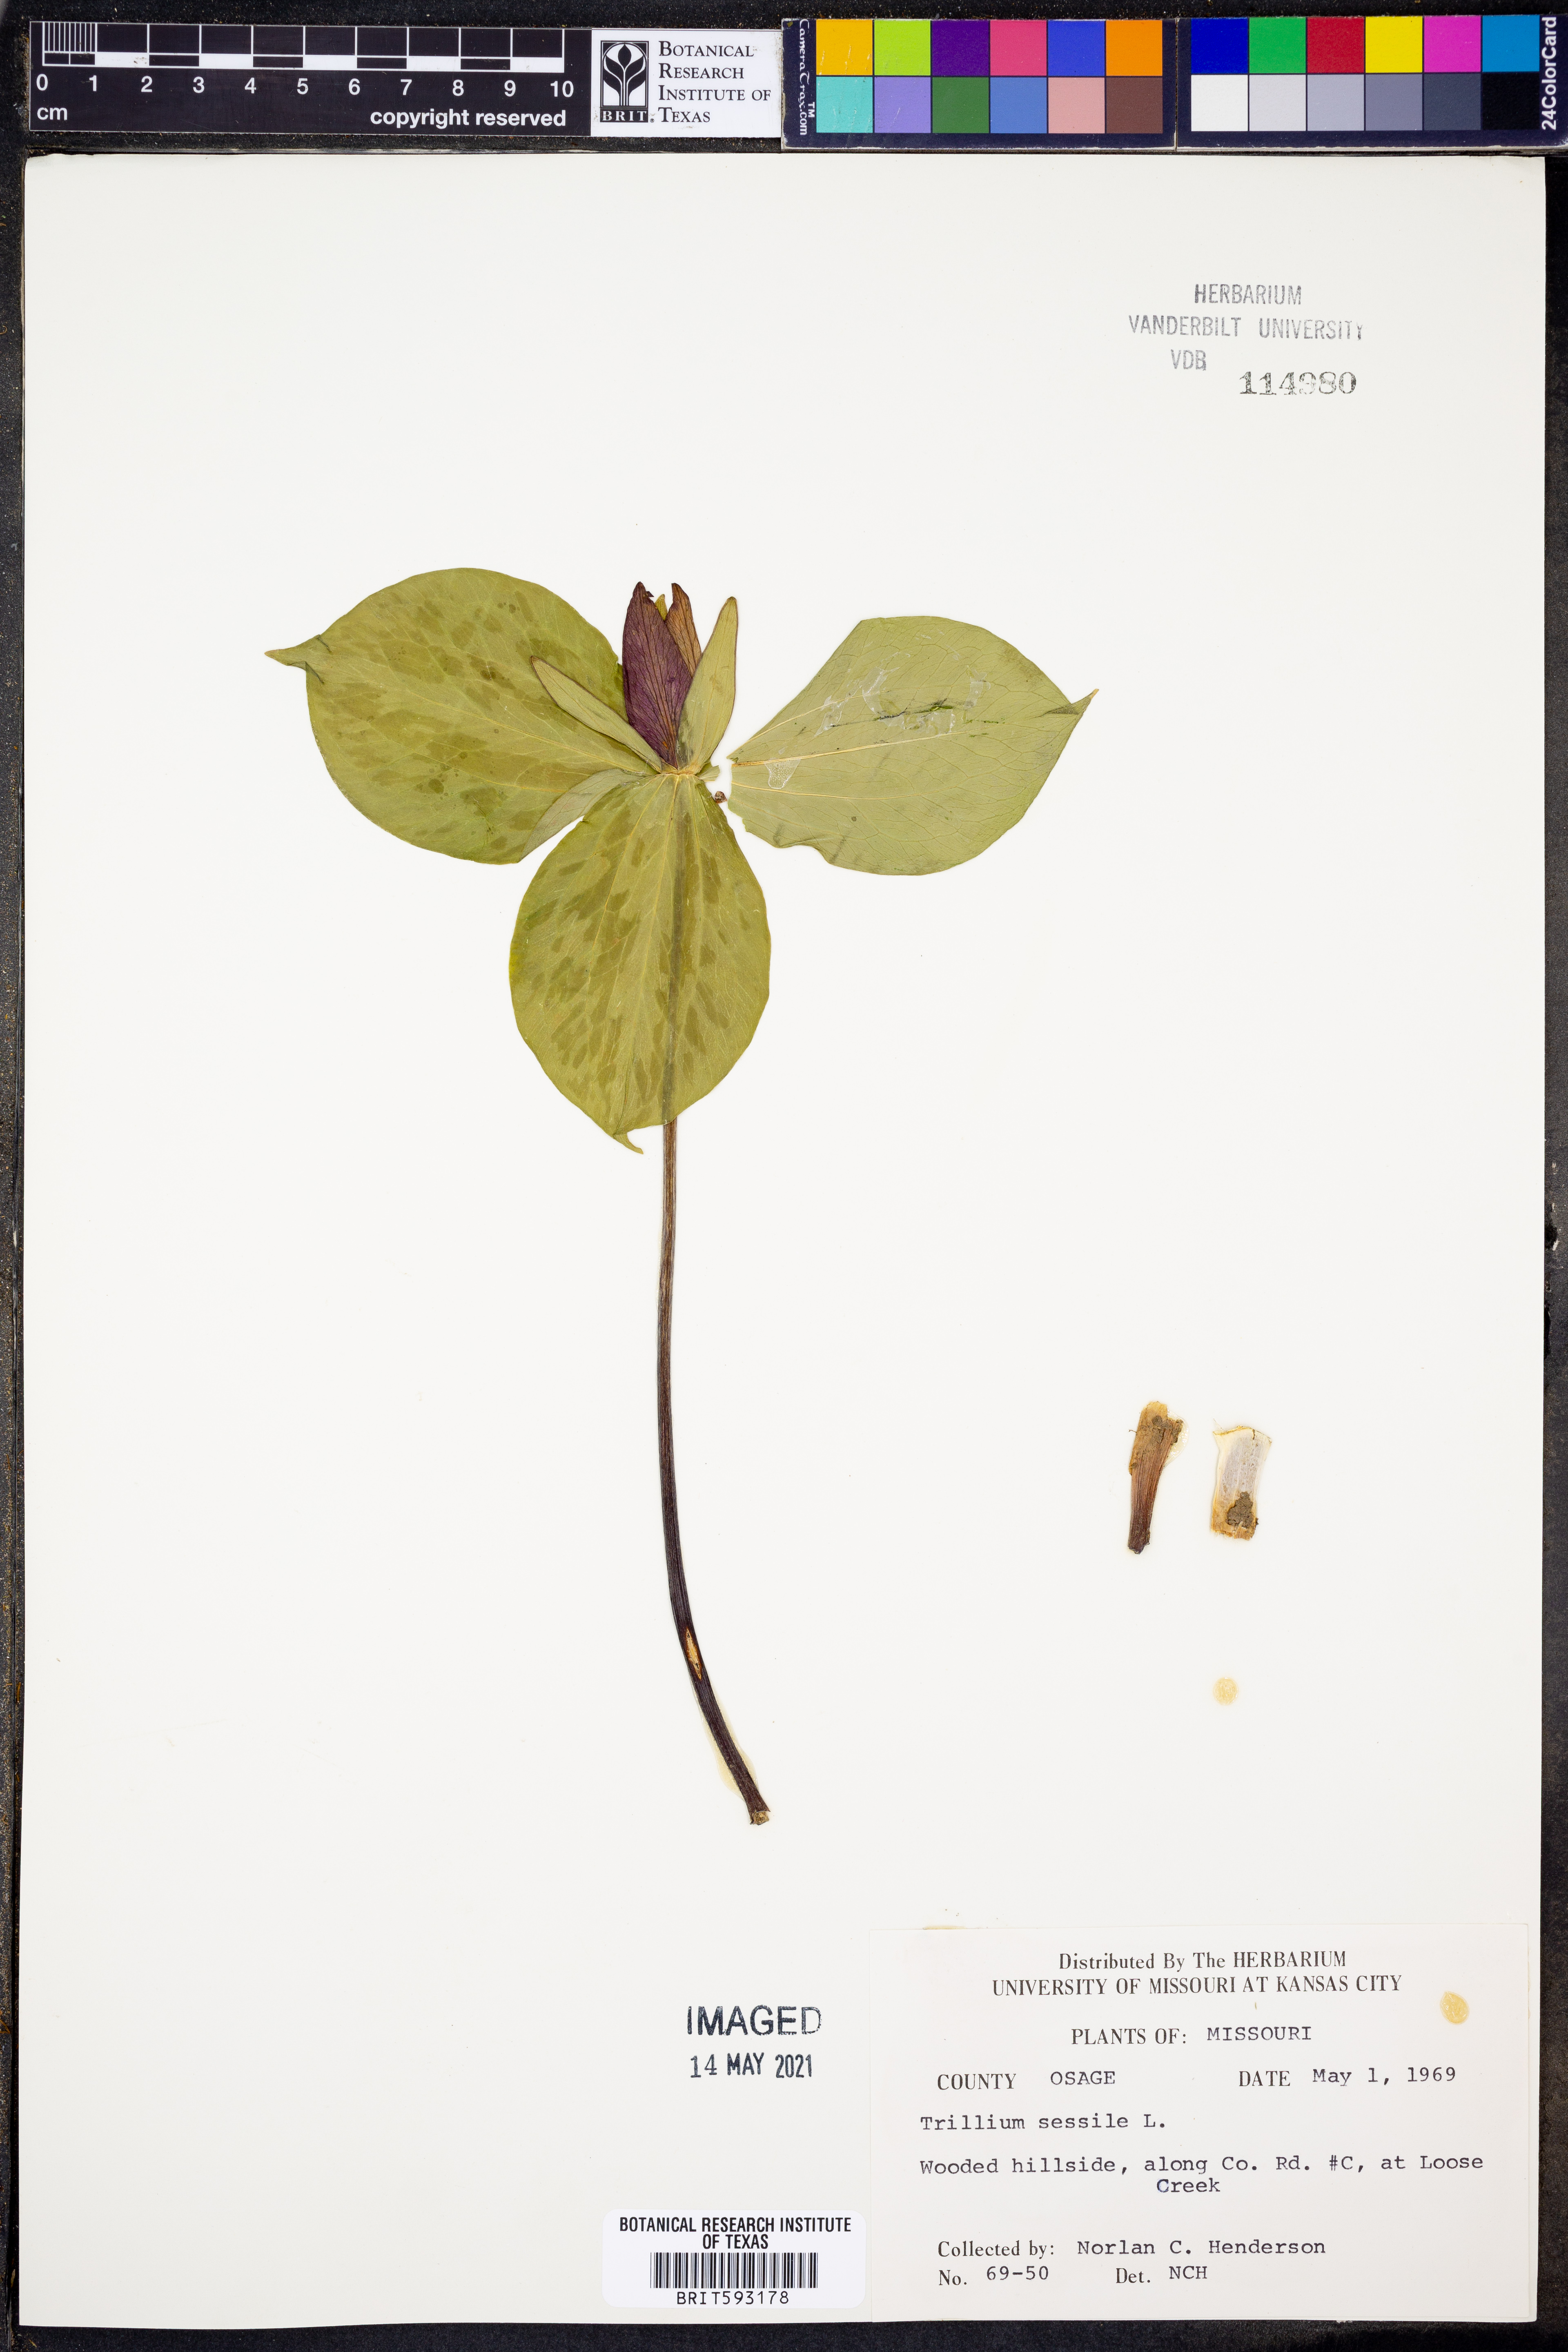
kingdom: Plantae
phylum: Tracheophyta
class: Liliopsida
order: Liliales
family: Melanthiaceae
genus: Trillium
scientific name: Trillium sessile
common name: Sessile trillium
